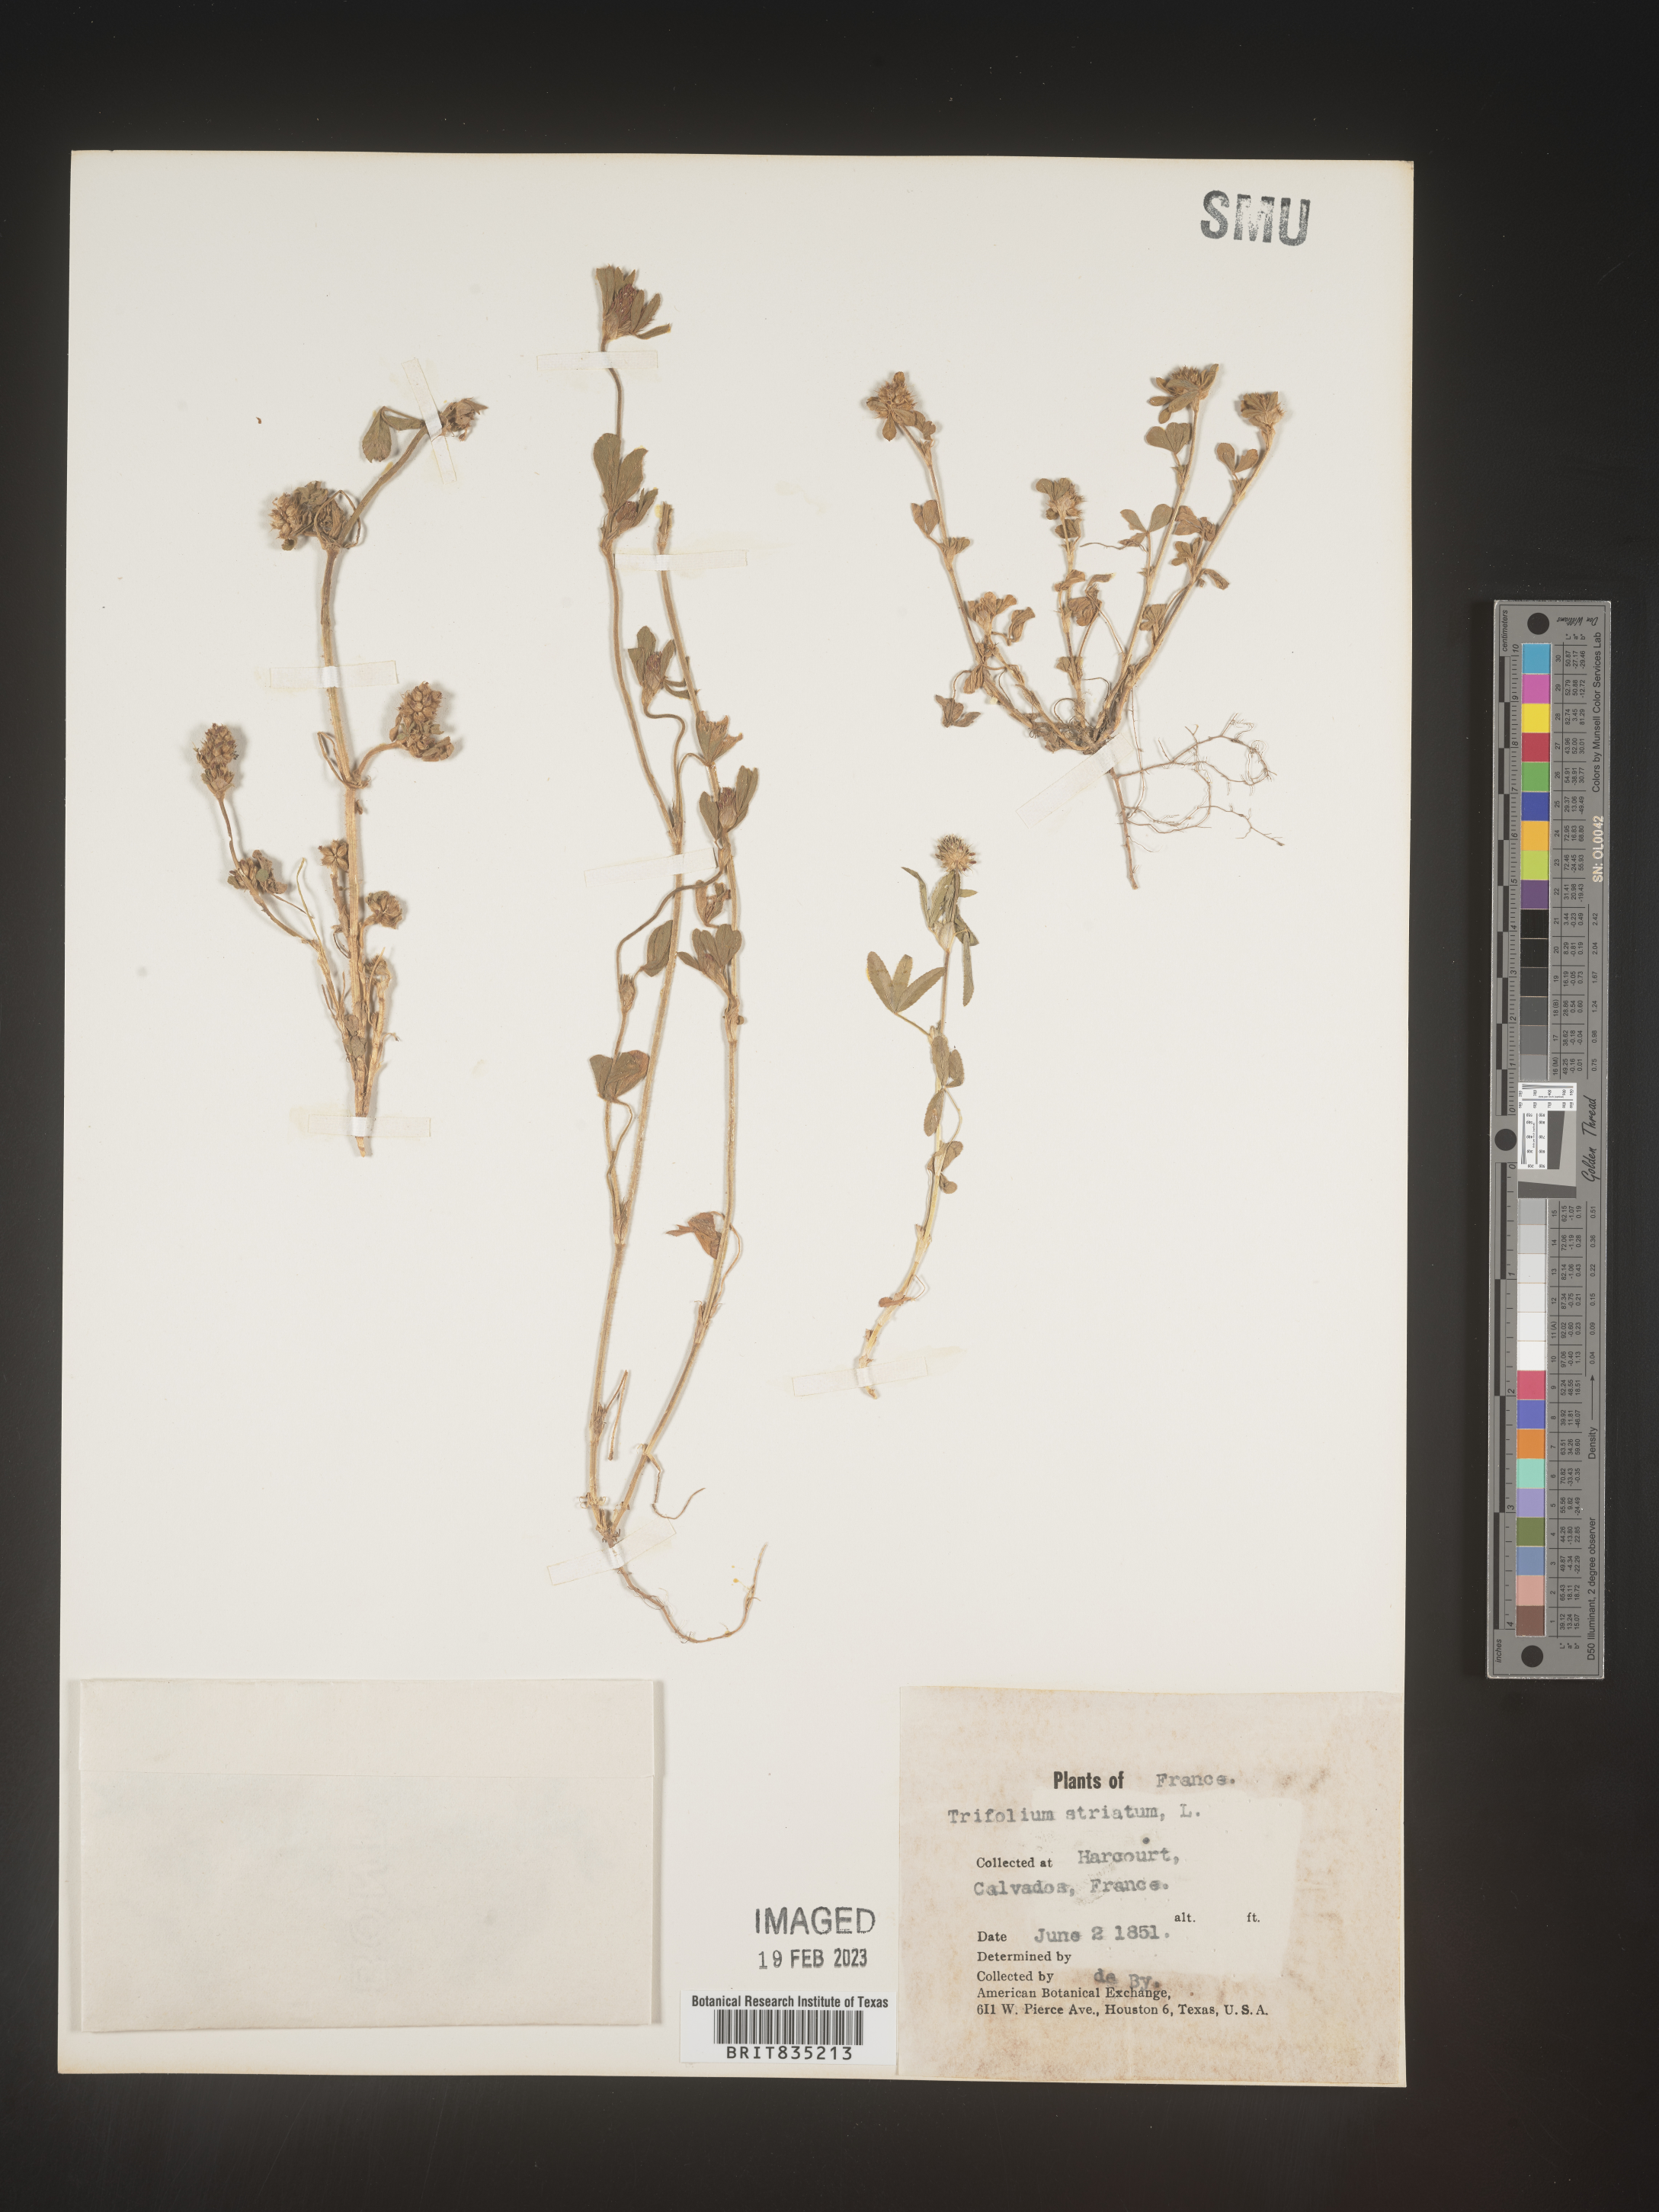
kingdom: Plantae
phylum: Tracheophyta
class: Magnoliopsida
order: Fabales
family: Fabaceae
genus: Trifolium
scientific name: Trifolium
